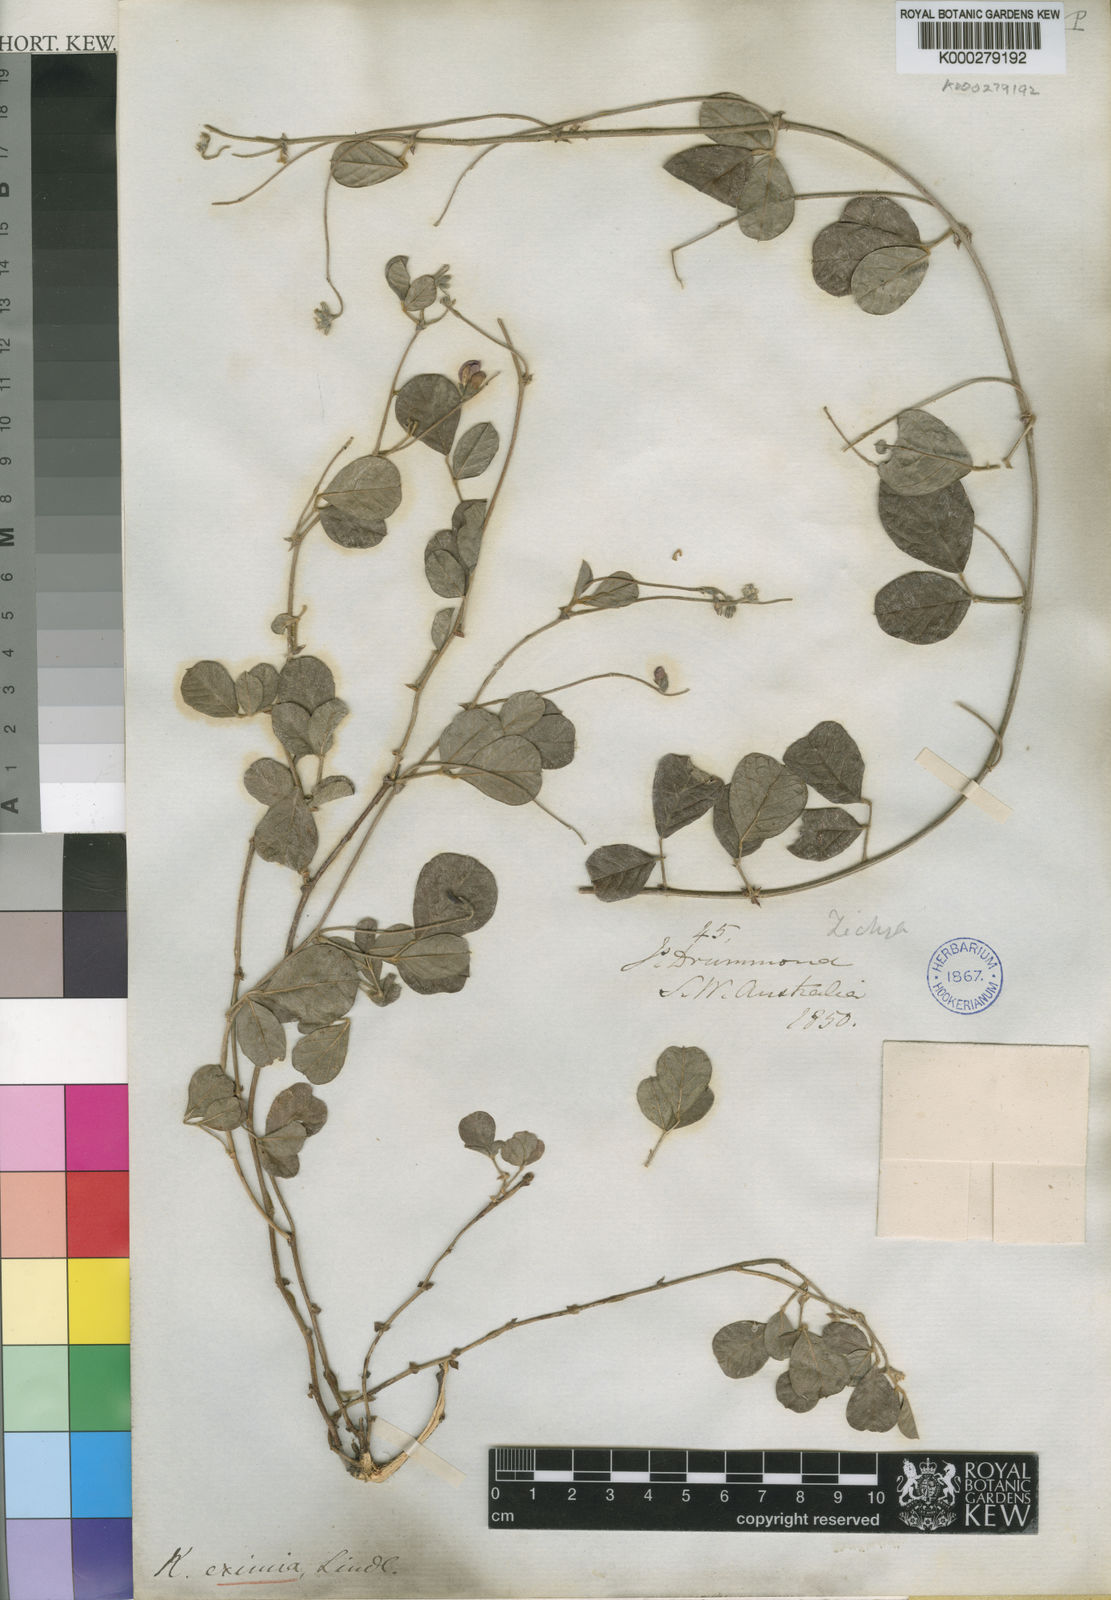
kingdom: Plantae
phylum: Tracheophyta
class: Magnoliopsida
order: Fabales
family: Fabaceae
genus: Kennedia
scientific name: Kennedia
